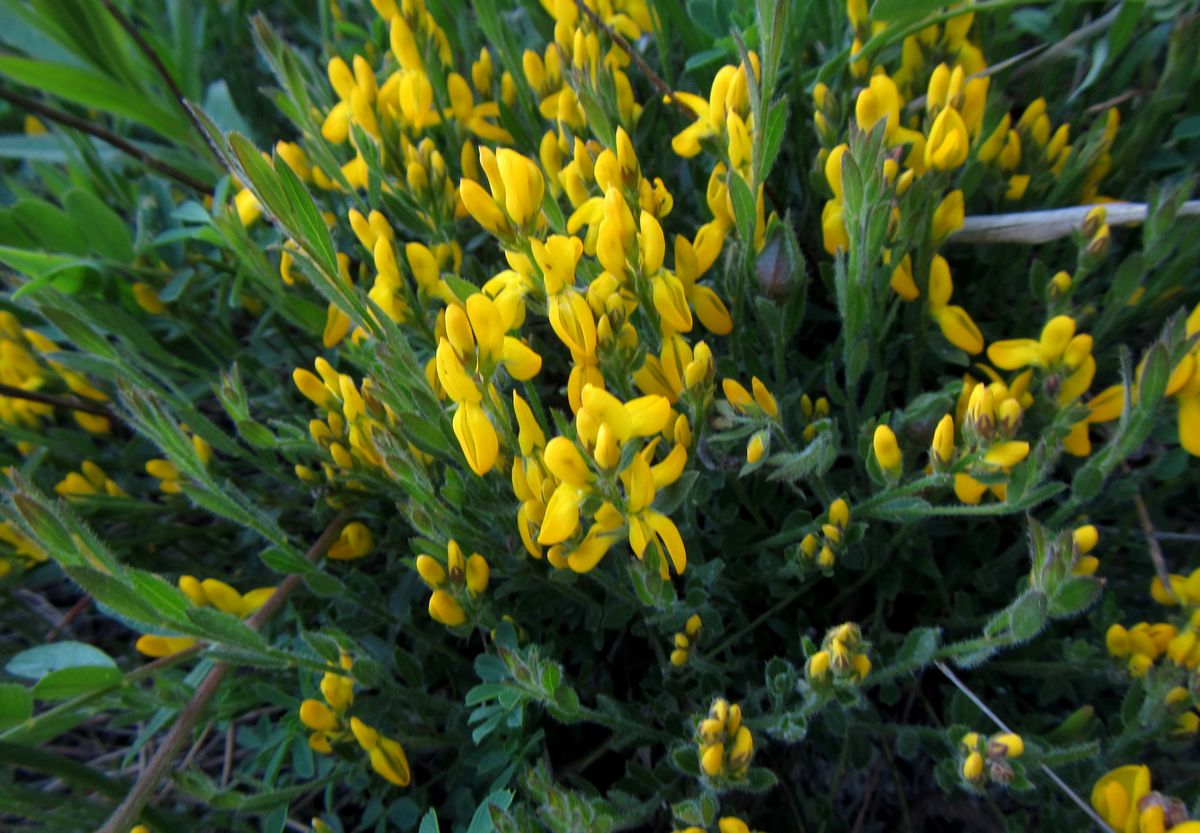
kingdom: Plantae
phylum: Tracheophyta
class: Magnoliopsida
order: Fabales
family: Fabaceae
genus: Genista
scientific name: Genista
